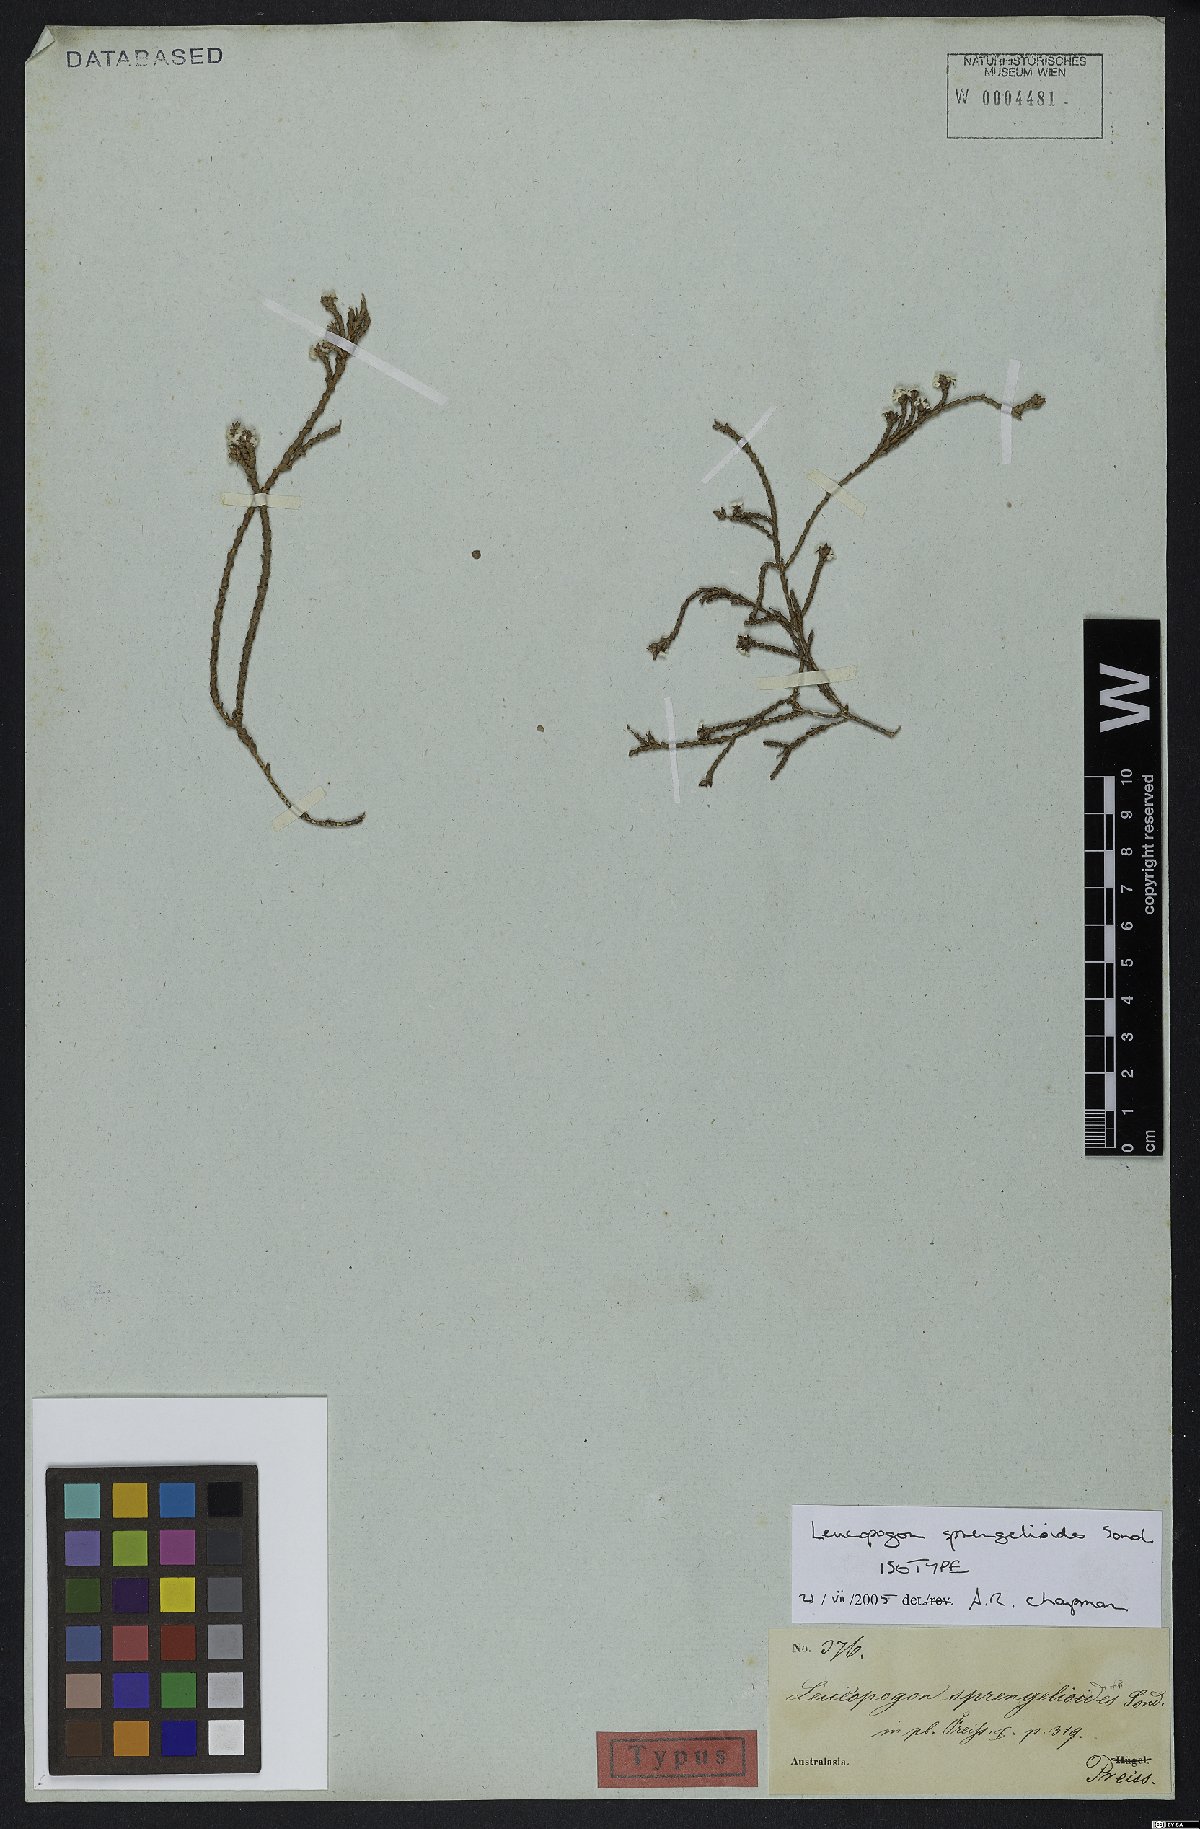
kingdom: Plantae
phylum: Tracheophyta
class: Magnoliopsida
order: Ericales
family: Ericaceae
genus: Leucopogon
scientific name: Leucopogon sprengelioides
